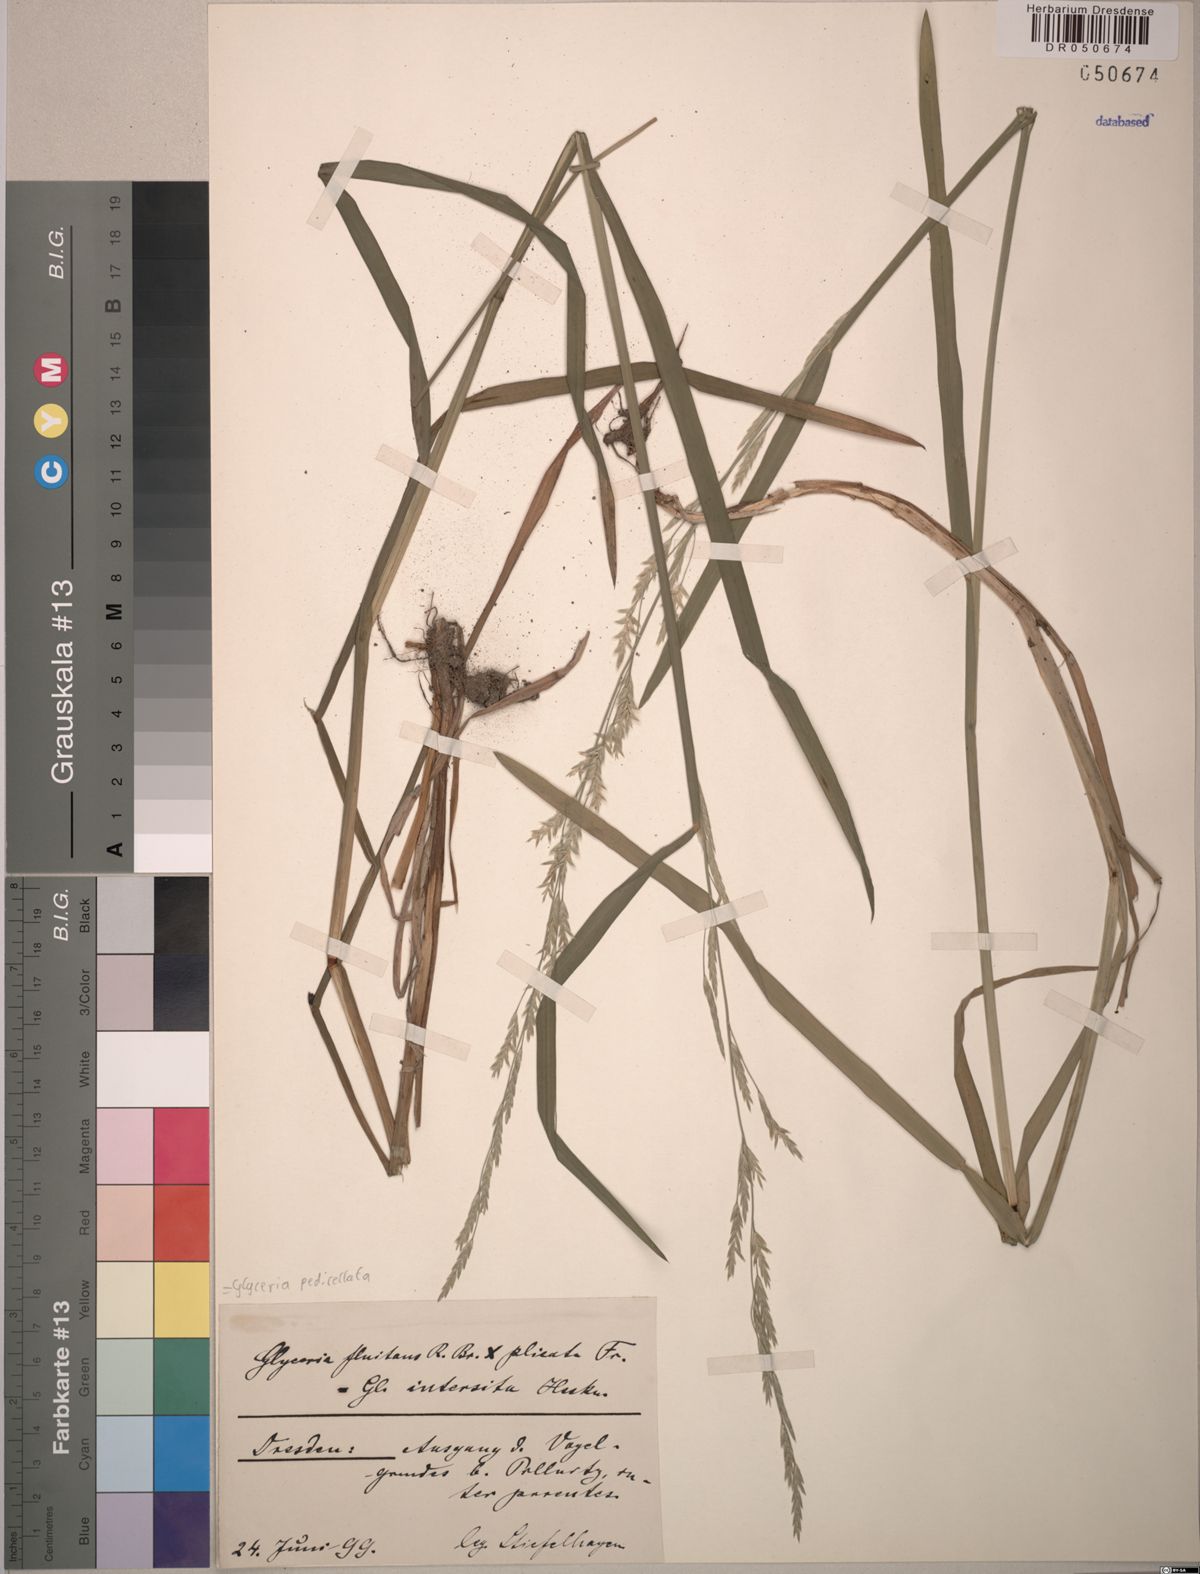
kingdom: Plantae
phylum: Tracheophyta
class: Liliopsida
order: Poales
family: Poaceae
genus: Glyceria
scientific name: Glyceria pedicellata
